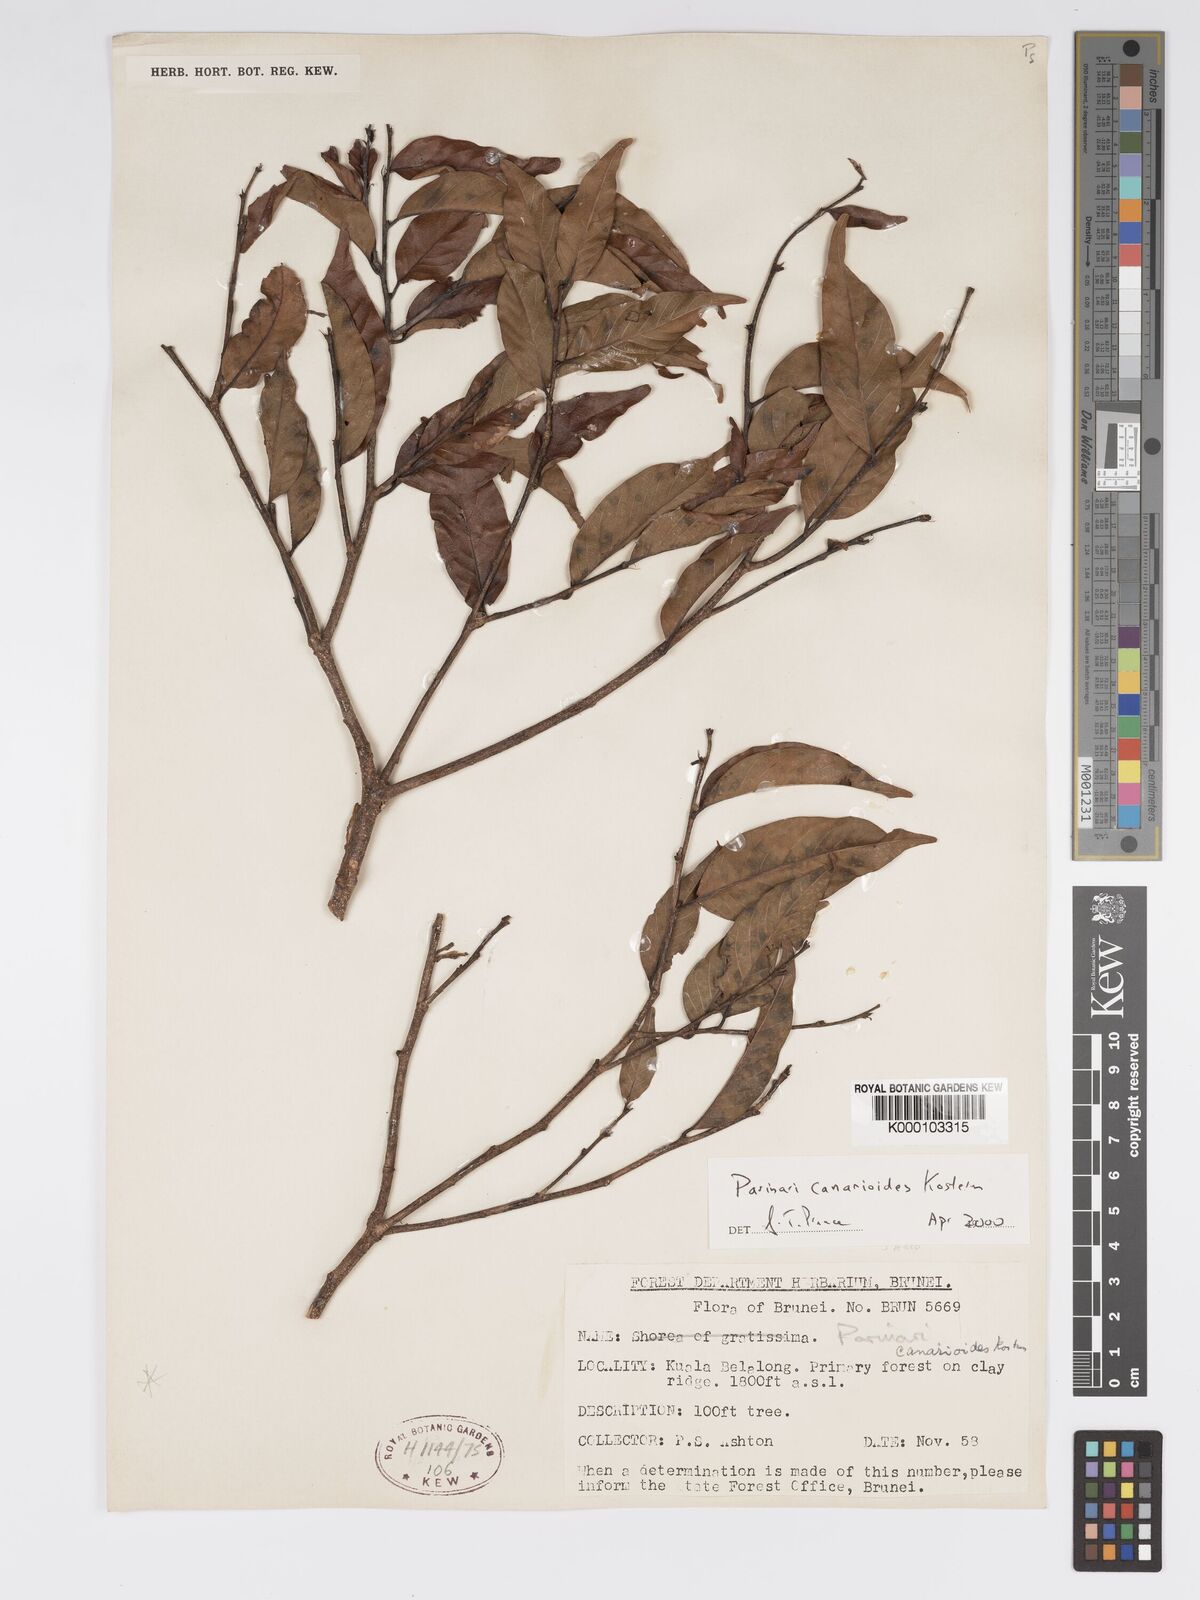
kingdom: Plantae
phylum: Tracheophyta
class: Magnoliopsida
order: Malpighiales
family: Chrysobalanaceae
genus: Parinari
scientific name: Parinari canarioides
